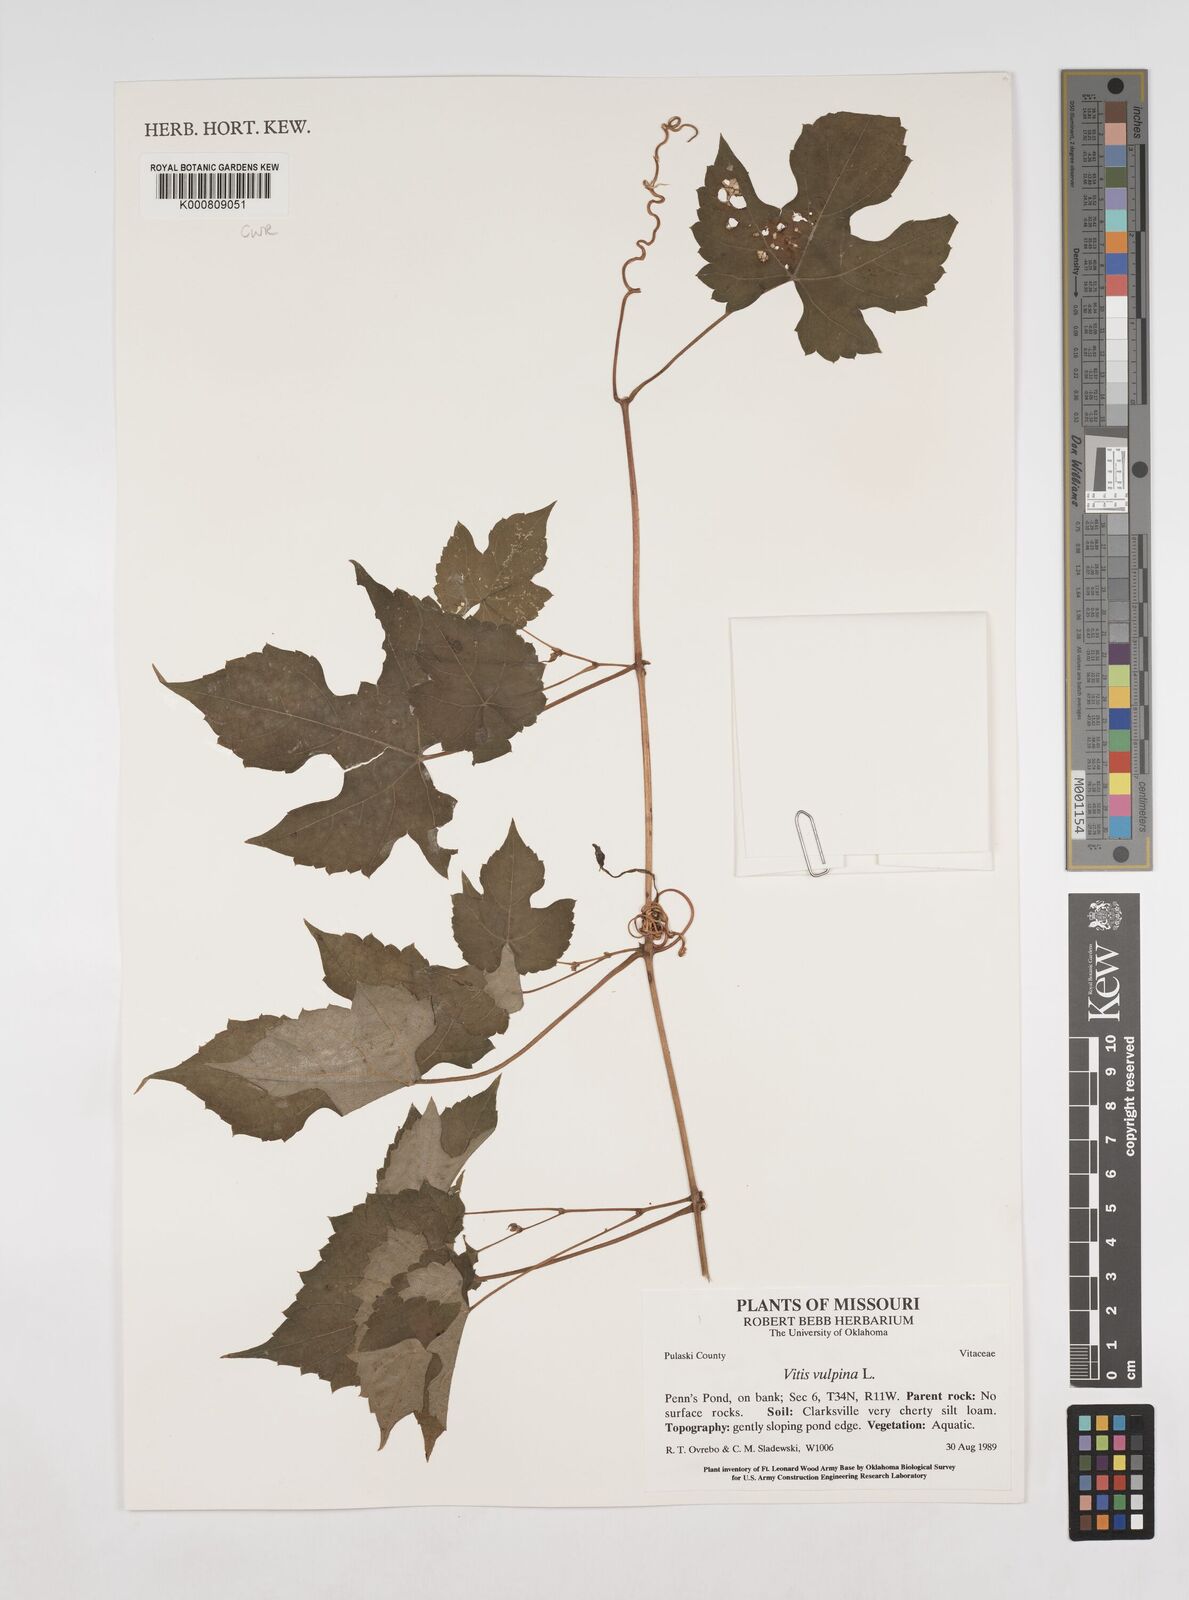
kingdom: Plantae
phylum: Tracheophyta
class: Magnoliopsida
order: Vitales
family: Vitaceae
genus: Vitis
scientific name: Vitis vulpina
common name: Frost grape
